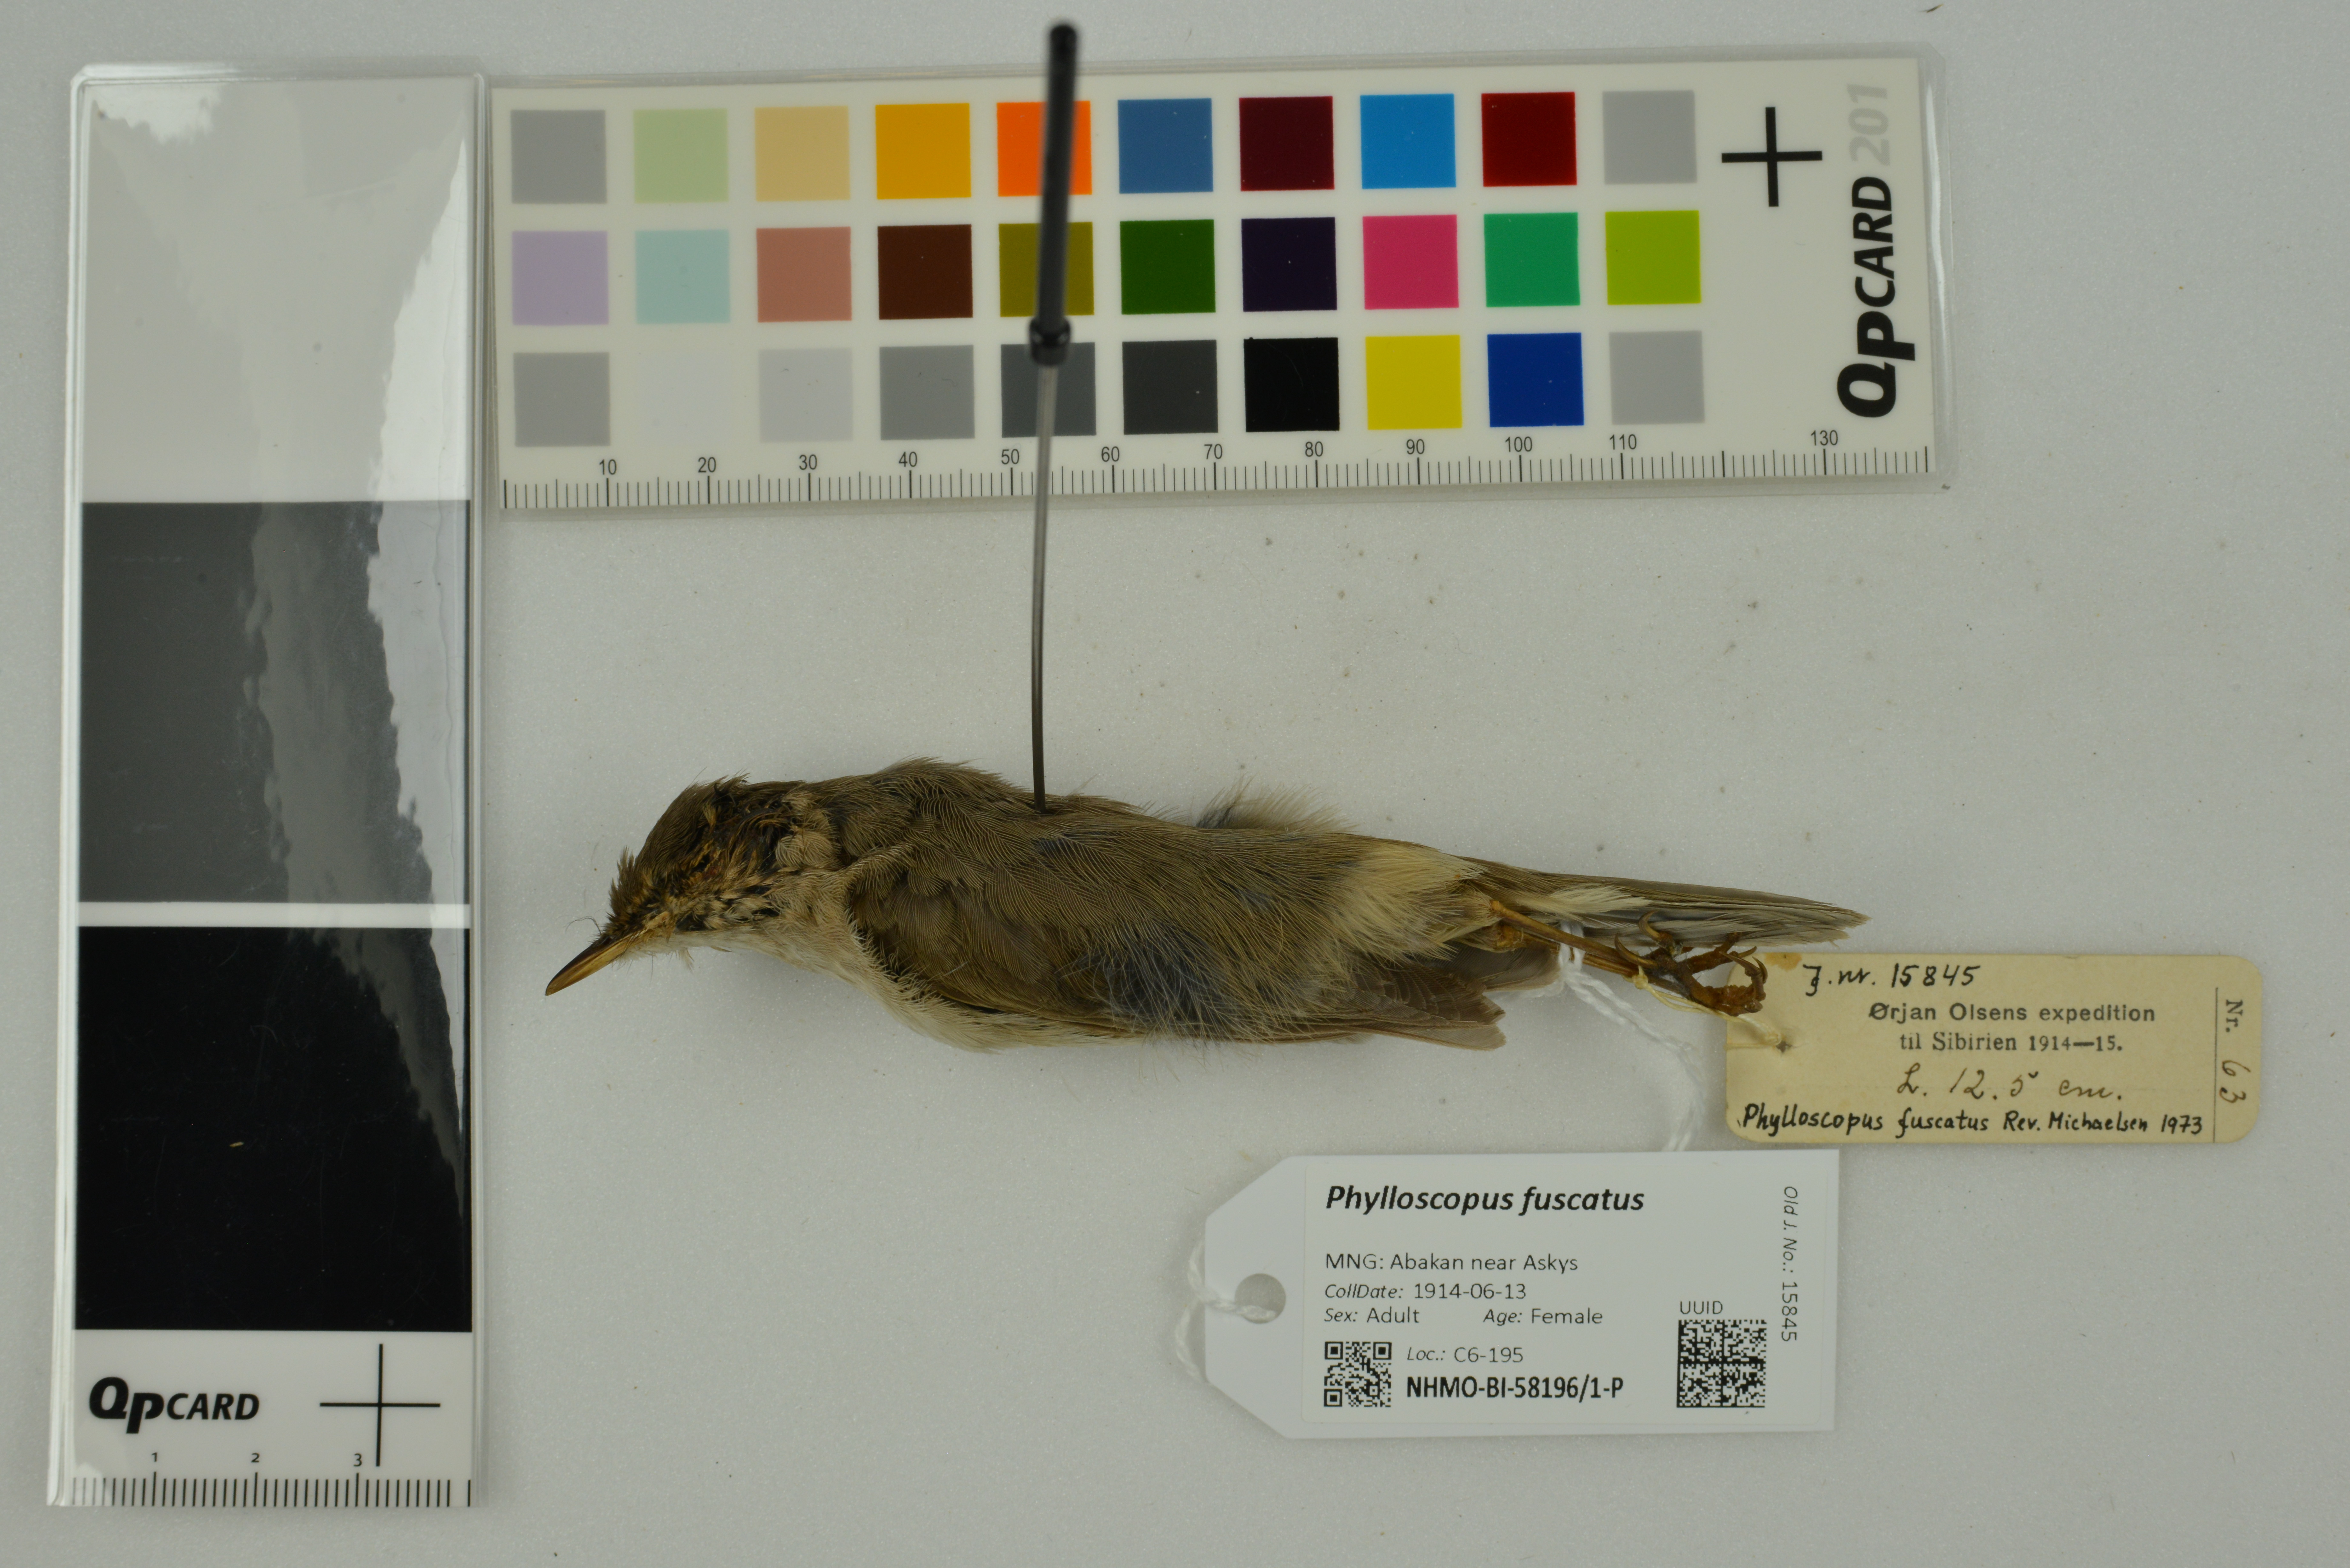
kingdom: Animalia
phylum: Chordata
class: Aves
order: Passeriformes
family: Phylloscopidae
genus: Phylloscopus
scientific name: Phylloscopus fuscatus
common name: Dusky warbler
